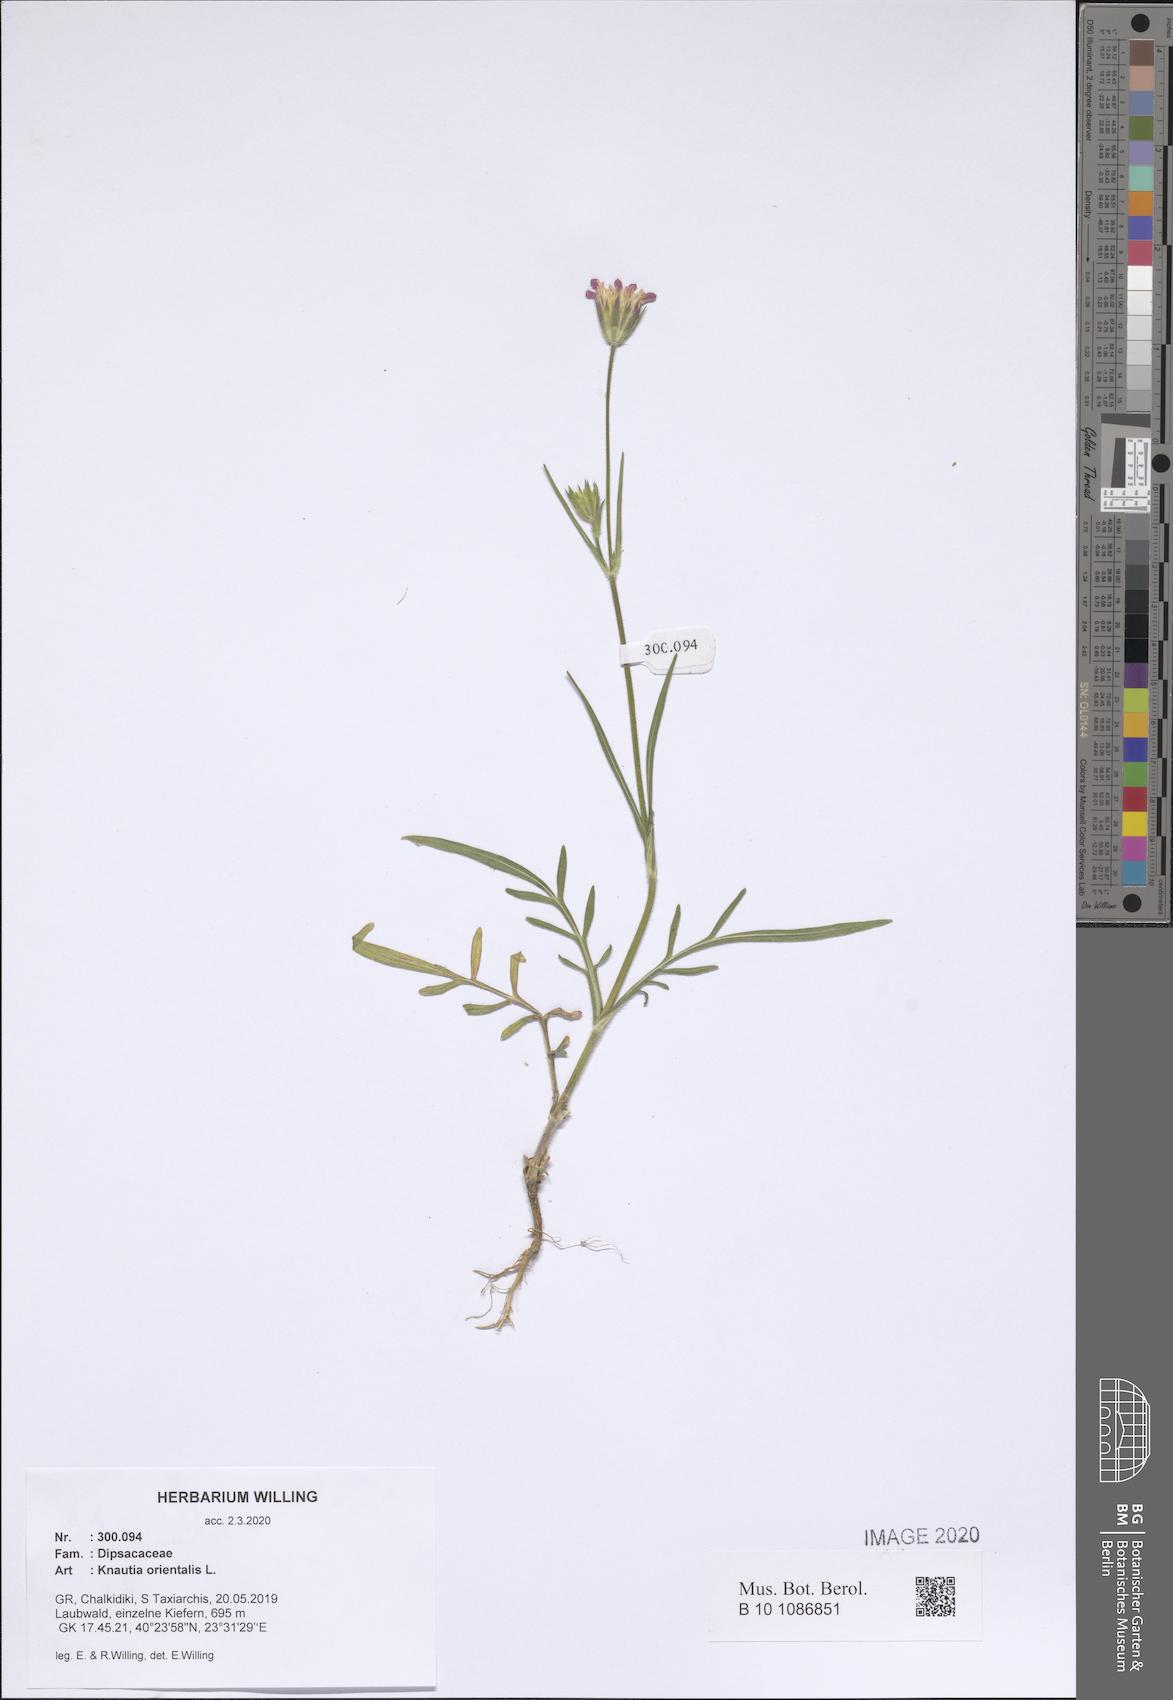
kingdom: Plantae
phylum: Tracheophyta
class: Magnoliopsida
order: Dipsacales
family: Caprifoliaceae
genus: Knautia
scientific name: Knautia orientalis
